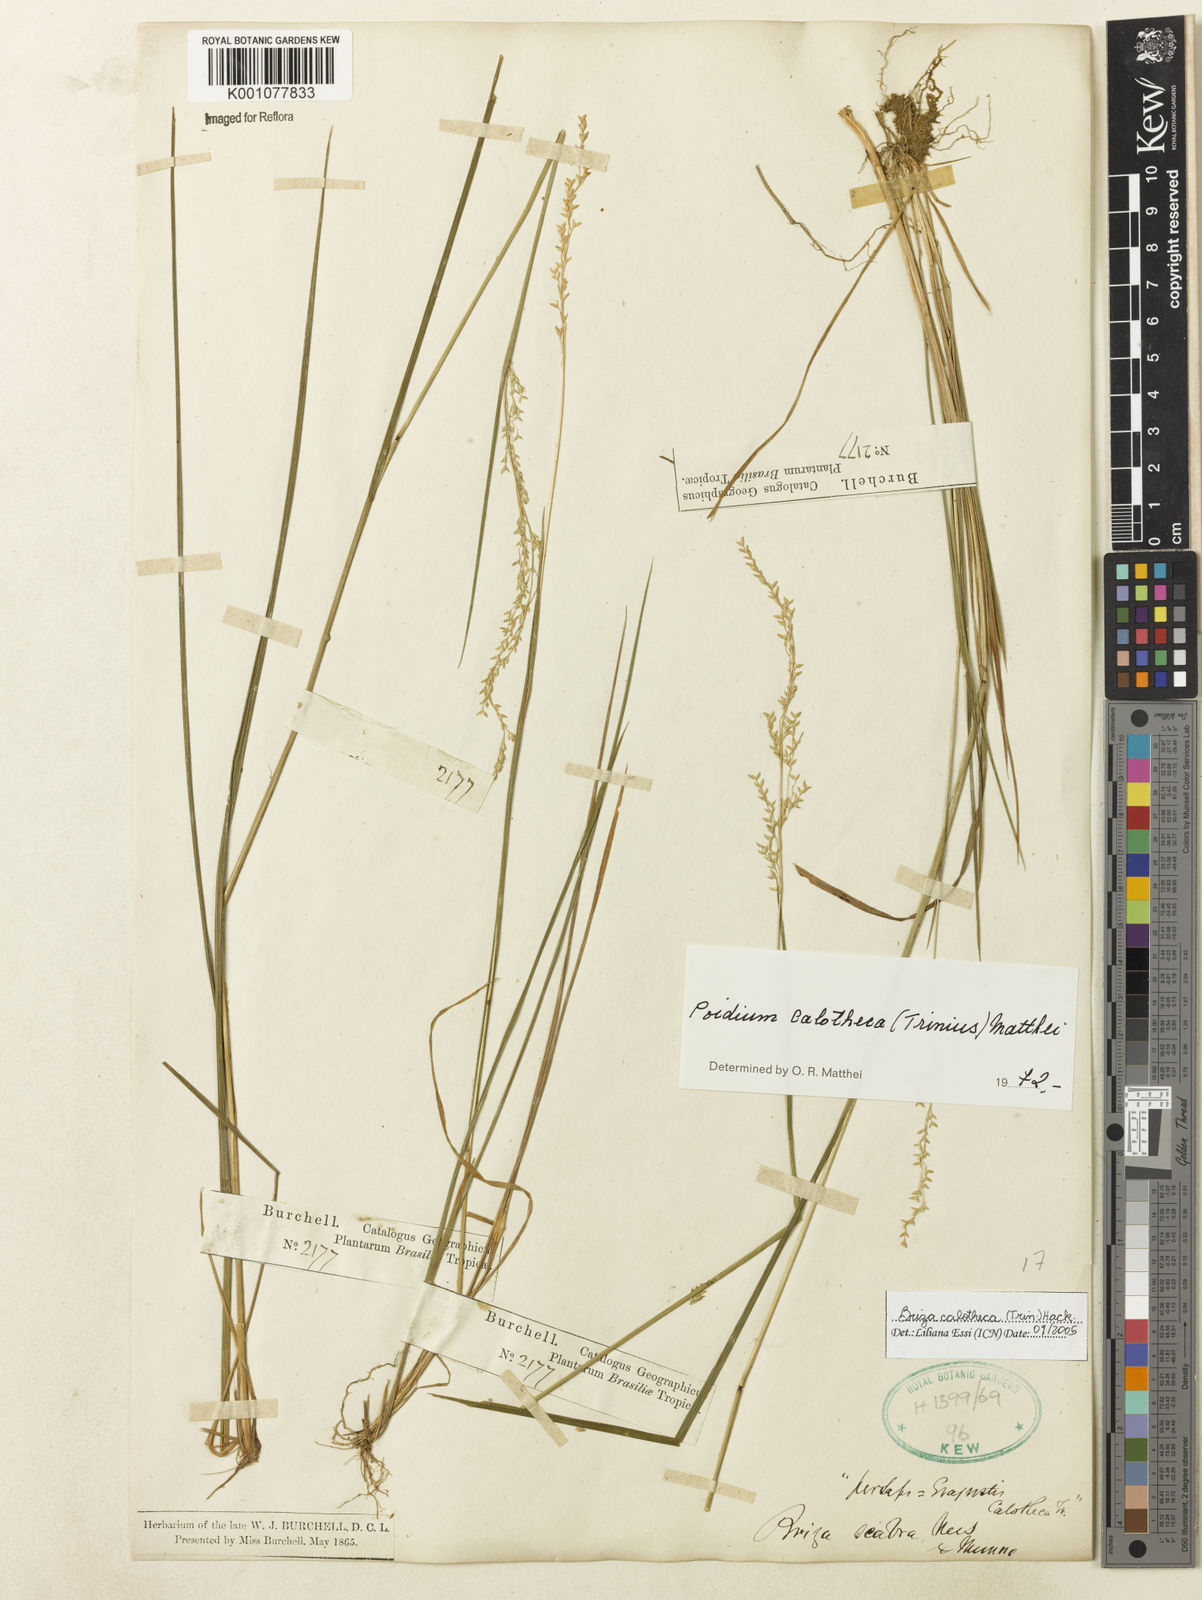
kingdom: Plantae
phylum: Tracheophyta
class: Liliopsida
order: Poales
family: Poaceae
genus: Poidium
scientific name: Poidium calotheca
